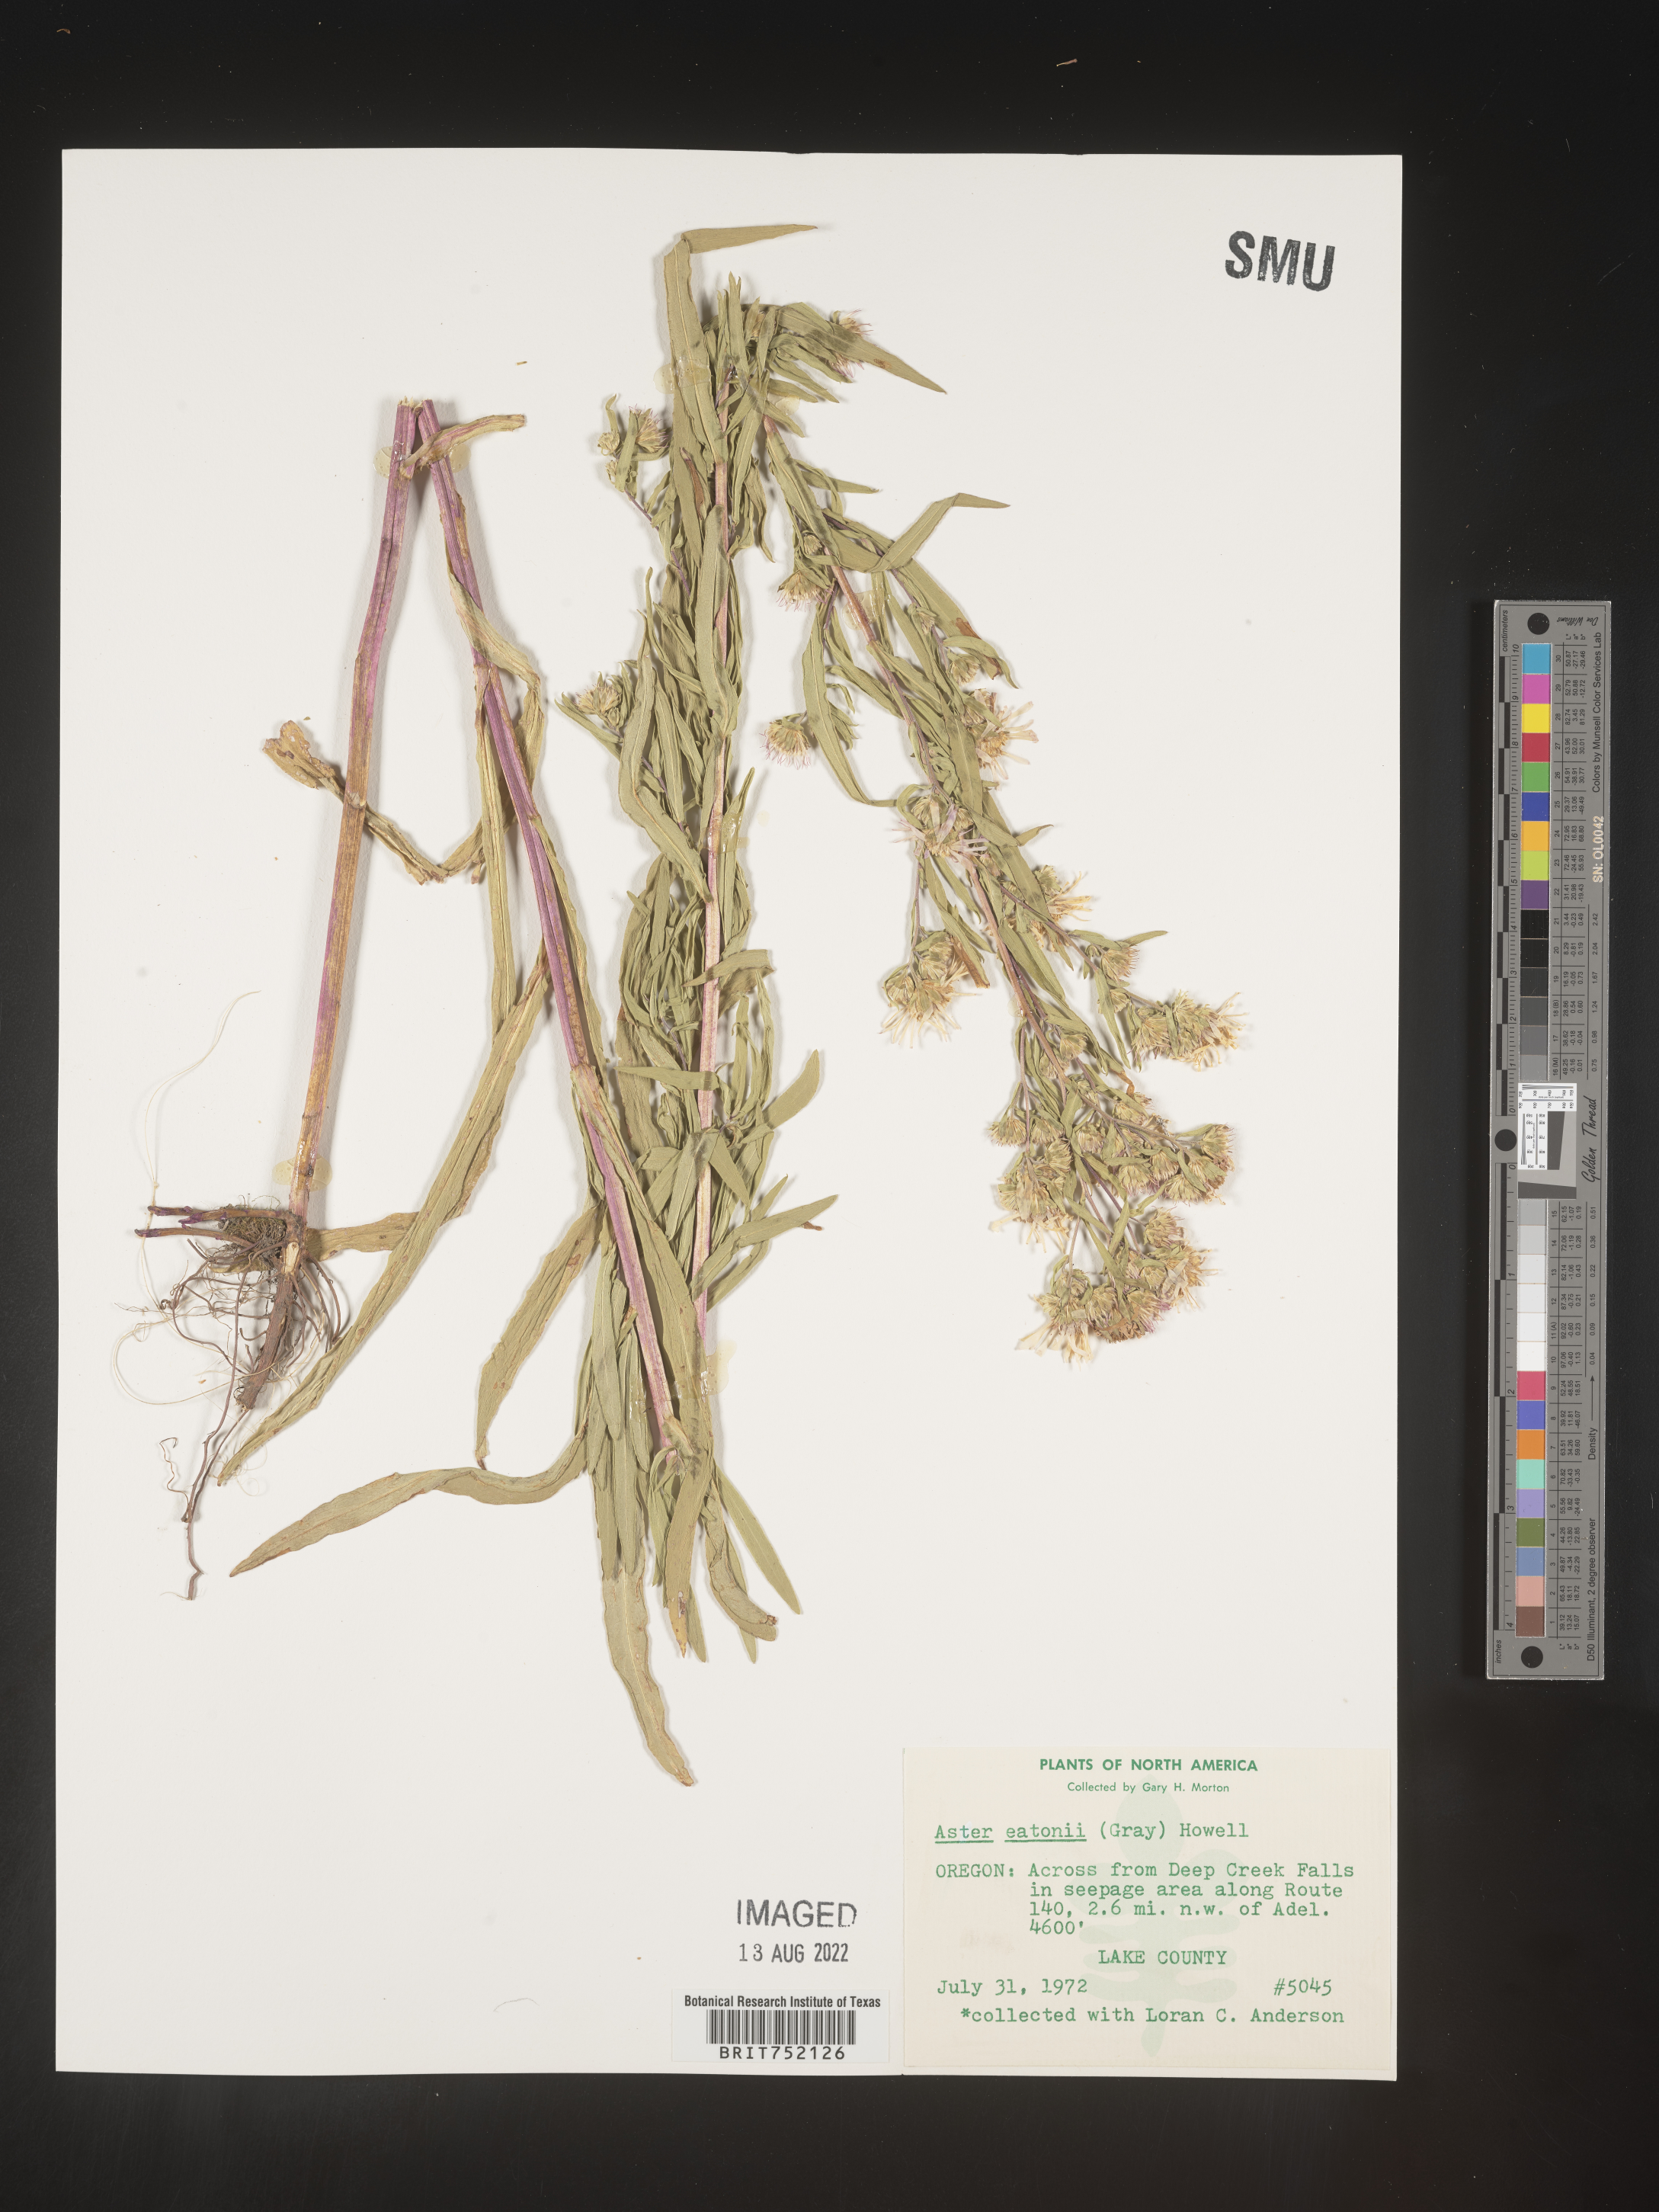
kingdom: Plantae
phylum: Tracheophyta
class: Magnoliopsida
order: Asterales
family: Asteraceae
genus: Symphyotrichum
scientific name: Symphyotrichum bracteolatum
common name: Eaton's aster
